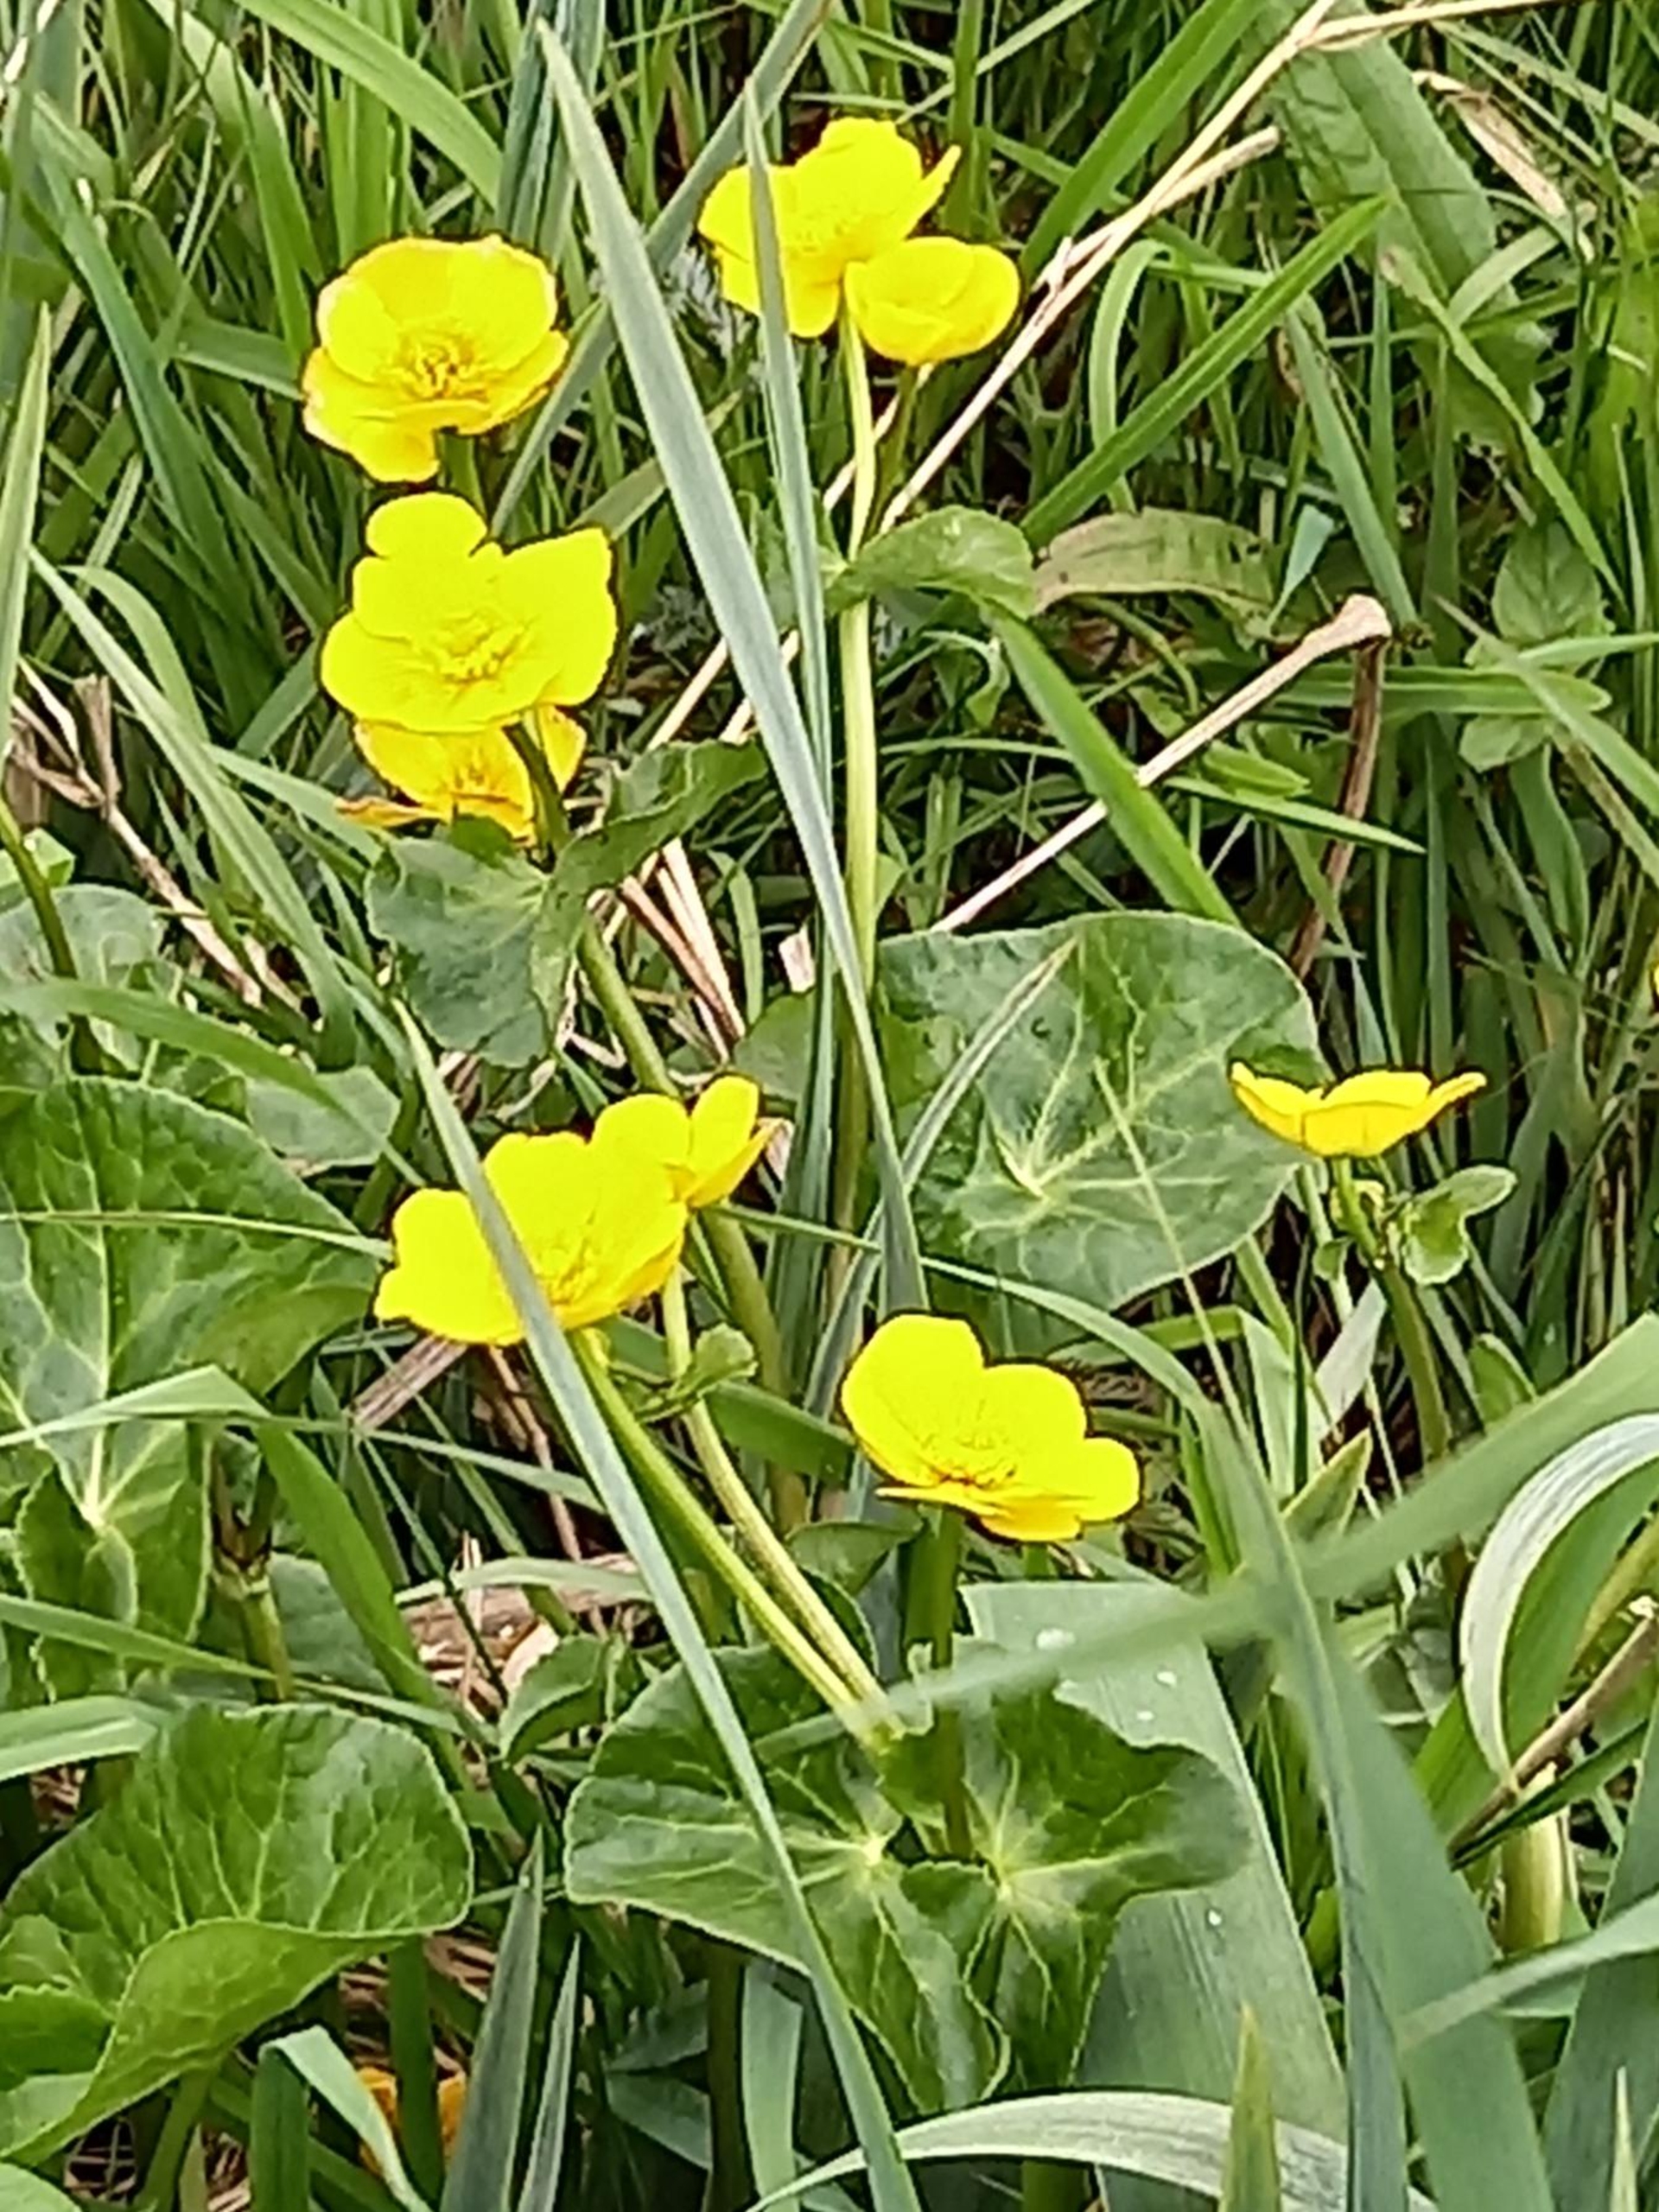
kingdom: Plantae
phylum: Tracheophyta
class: Magnoliopsida
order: Ranunculales
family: Ranunculaceae
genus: Caltha
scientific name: Caltha palustris
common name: Eng-kabbeleje
